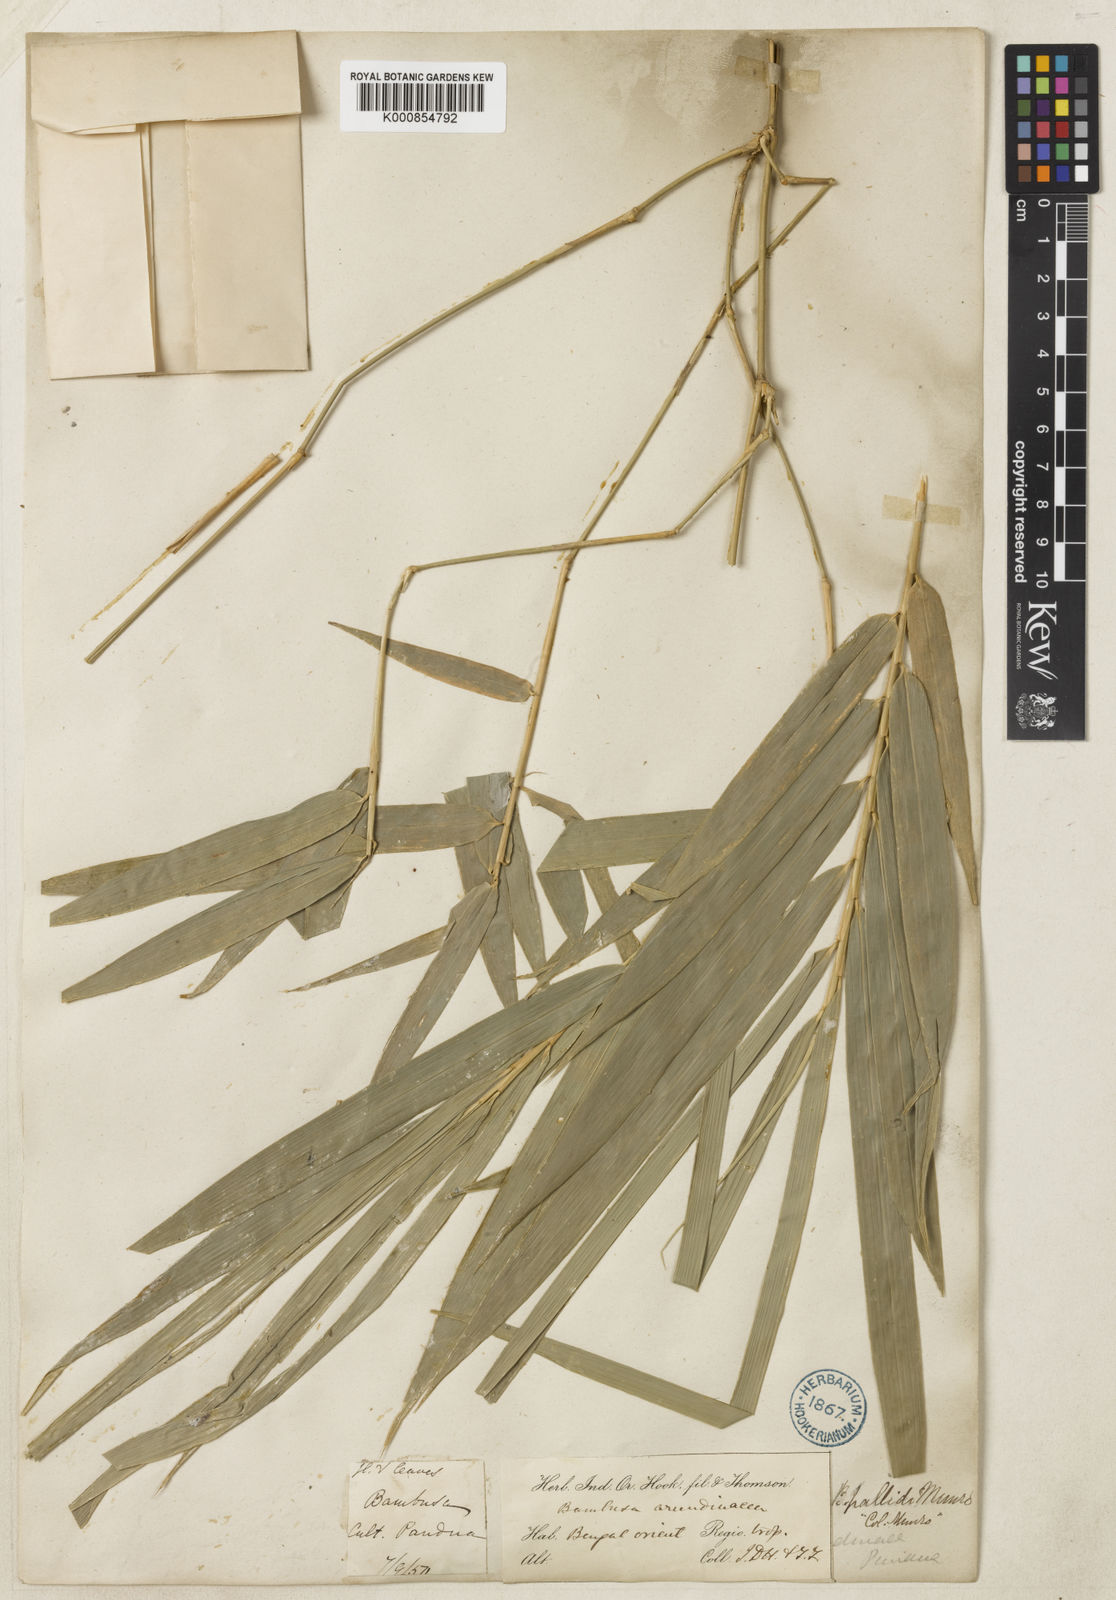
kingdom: Plantae
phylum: Tracheophyta
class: Liliopsida
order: Poales
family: Poaceae
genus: Bambusa
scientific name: Bambusa pallida
